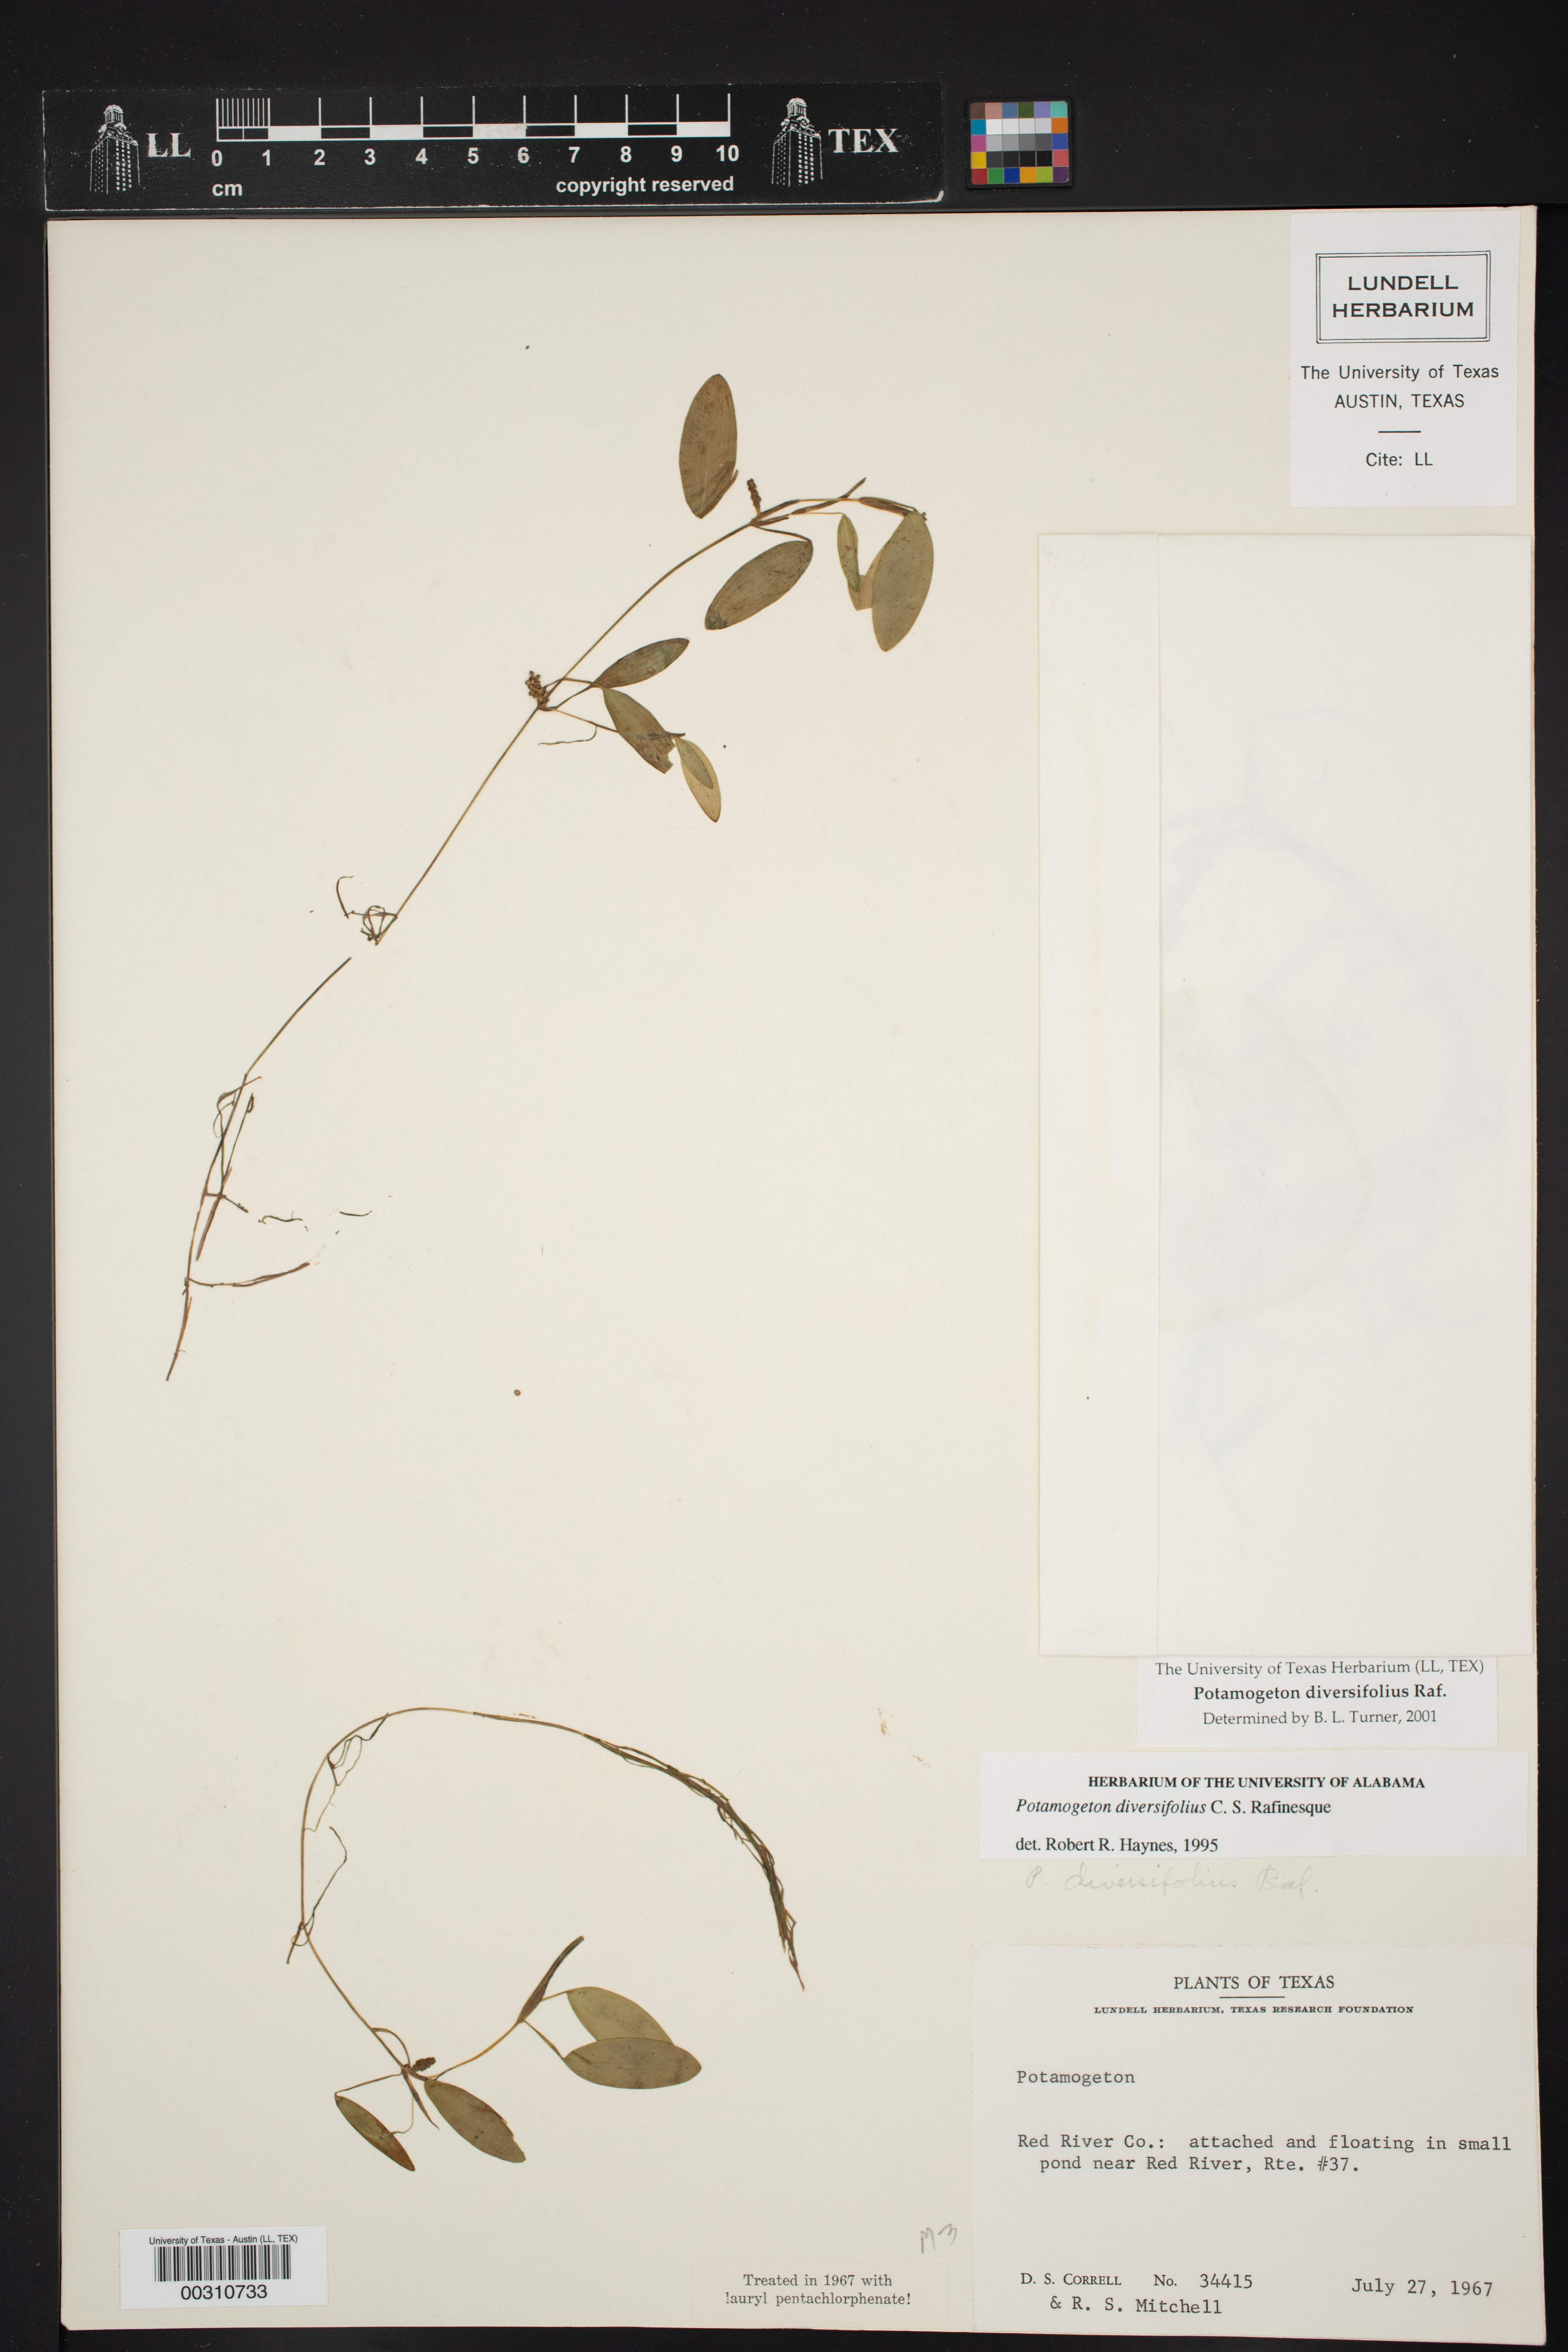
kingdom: Plantae
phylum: Tracheophyta
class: Liliopsida
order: Alismatales
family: Potamogetonaceae
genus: Potamogeton
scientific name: Potamogeton diversifolius
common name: Water-thread pondweed
